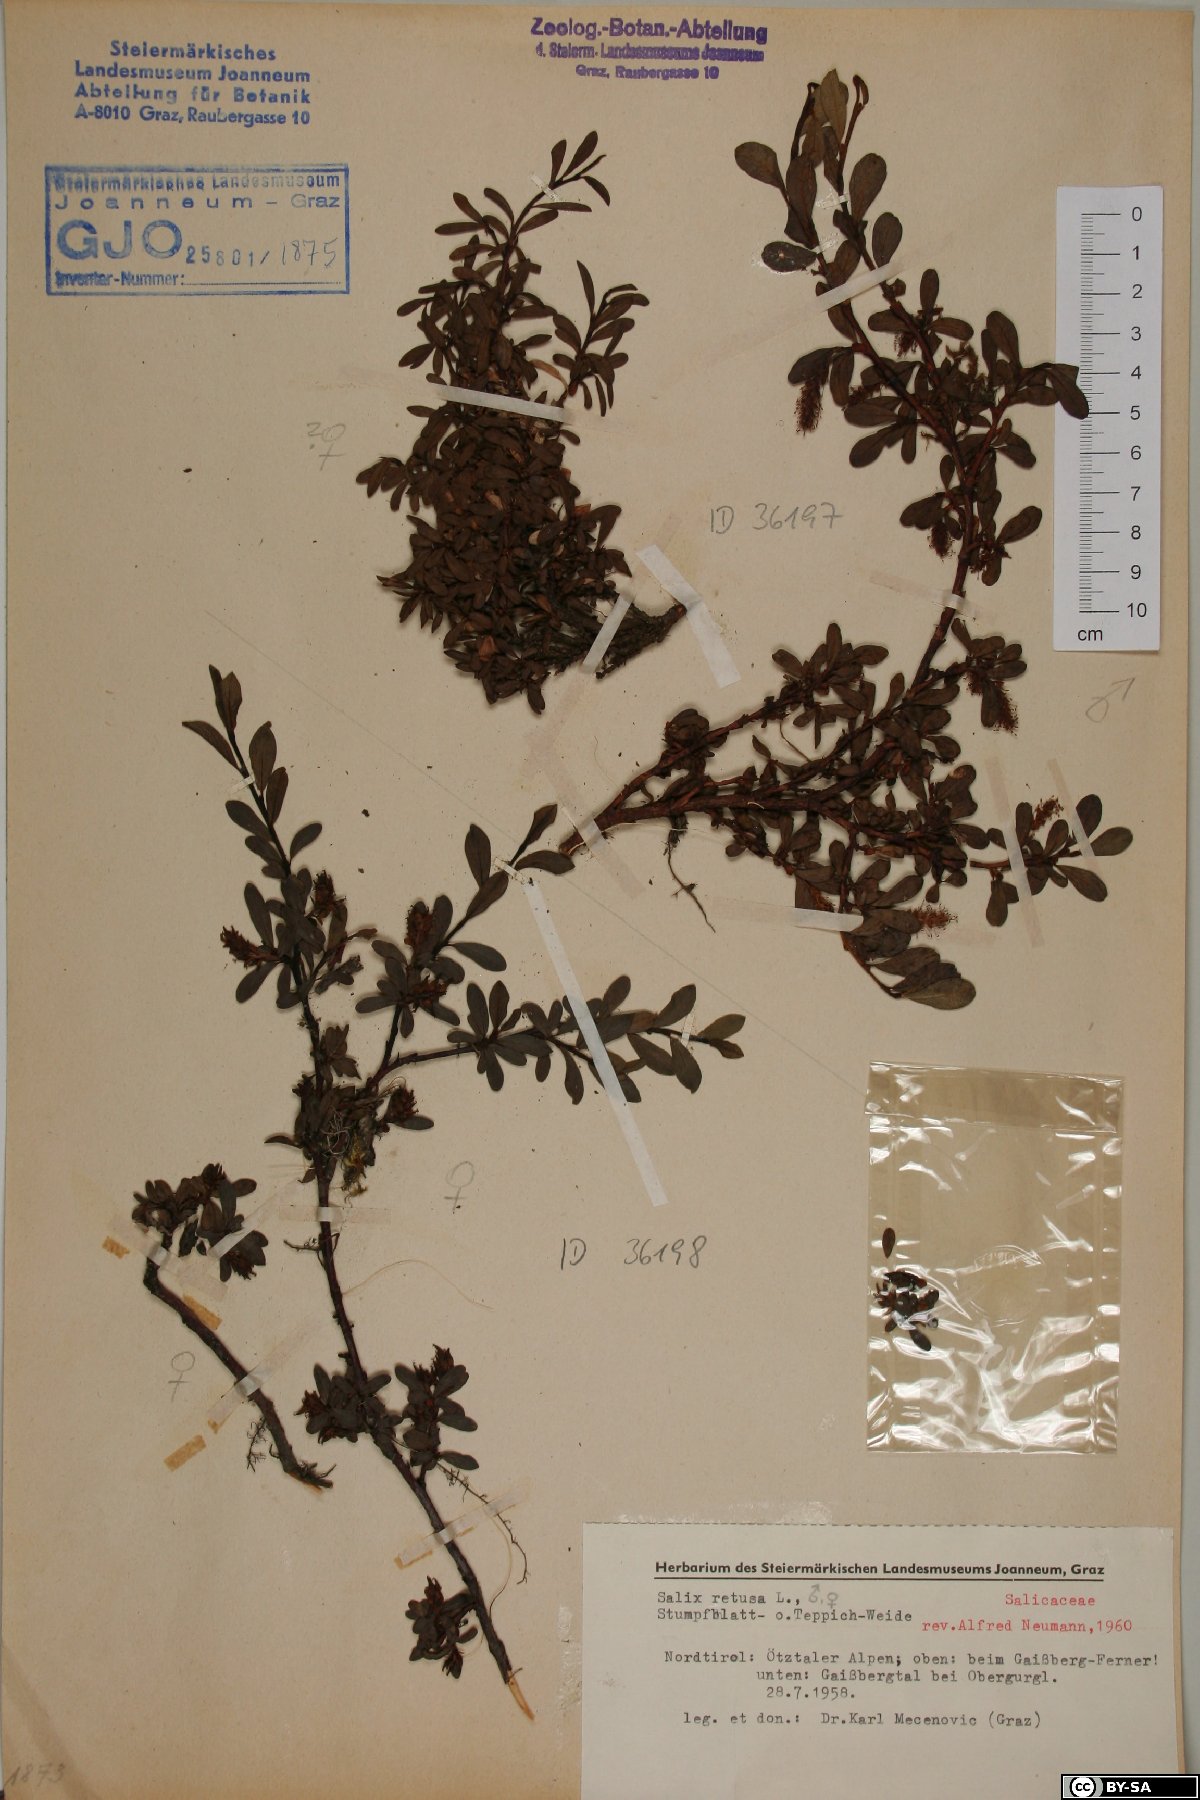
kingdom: Plantae
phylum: Tracheophyta
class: Magnoliopsida
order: Malpighiales
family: Salicaceae
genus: Salix
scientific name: Salix retusa
